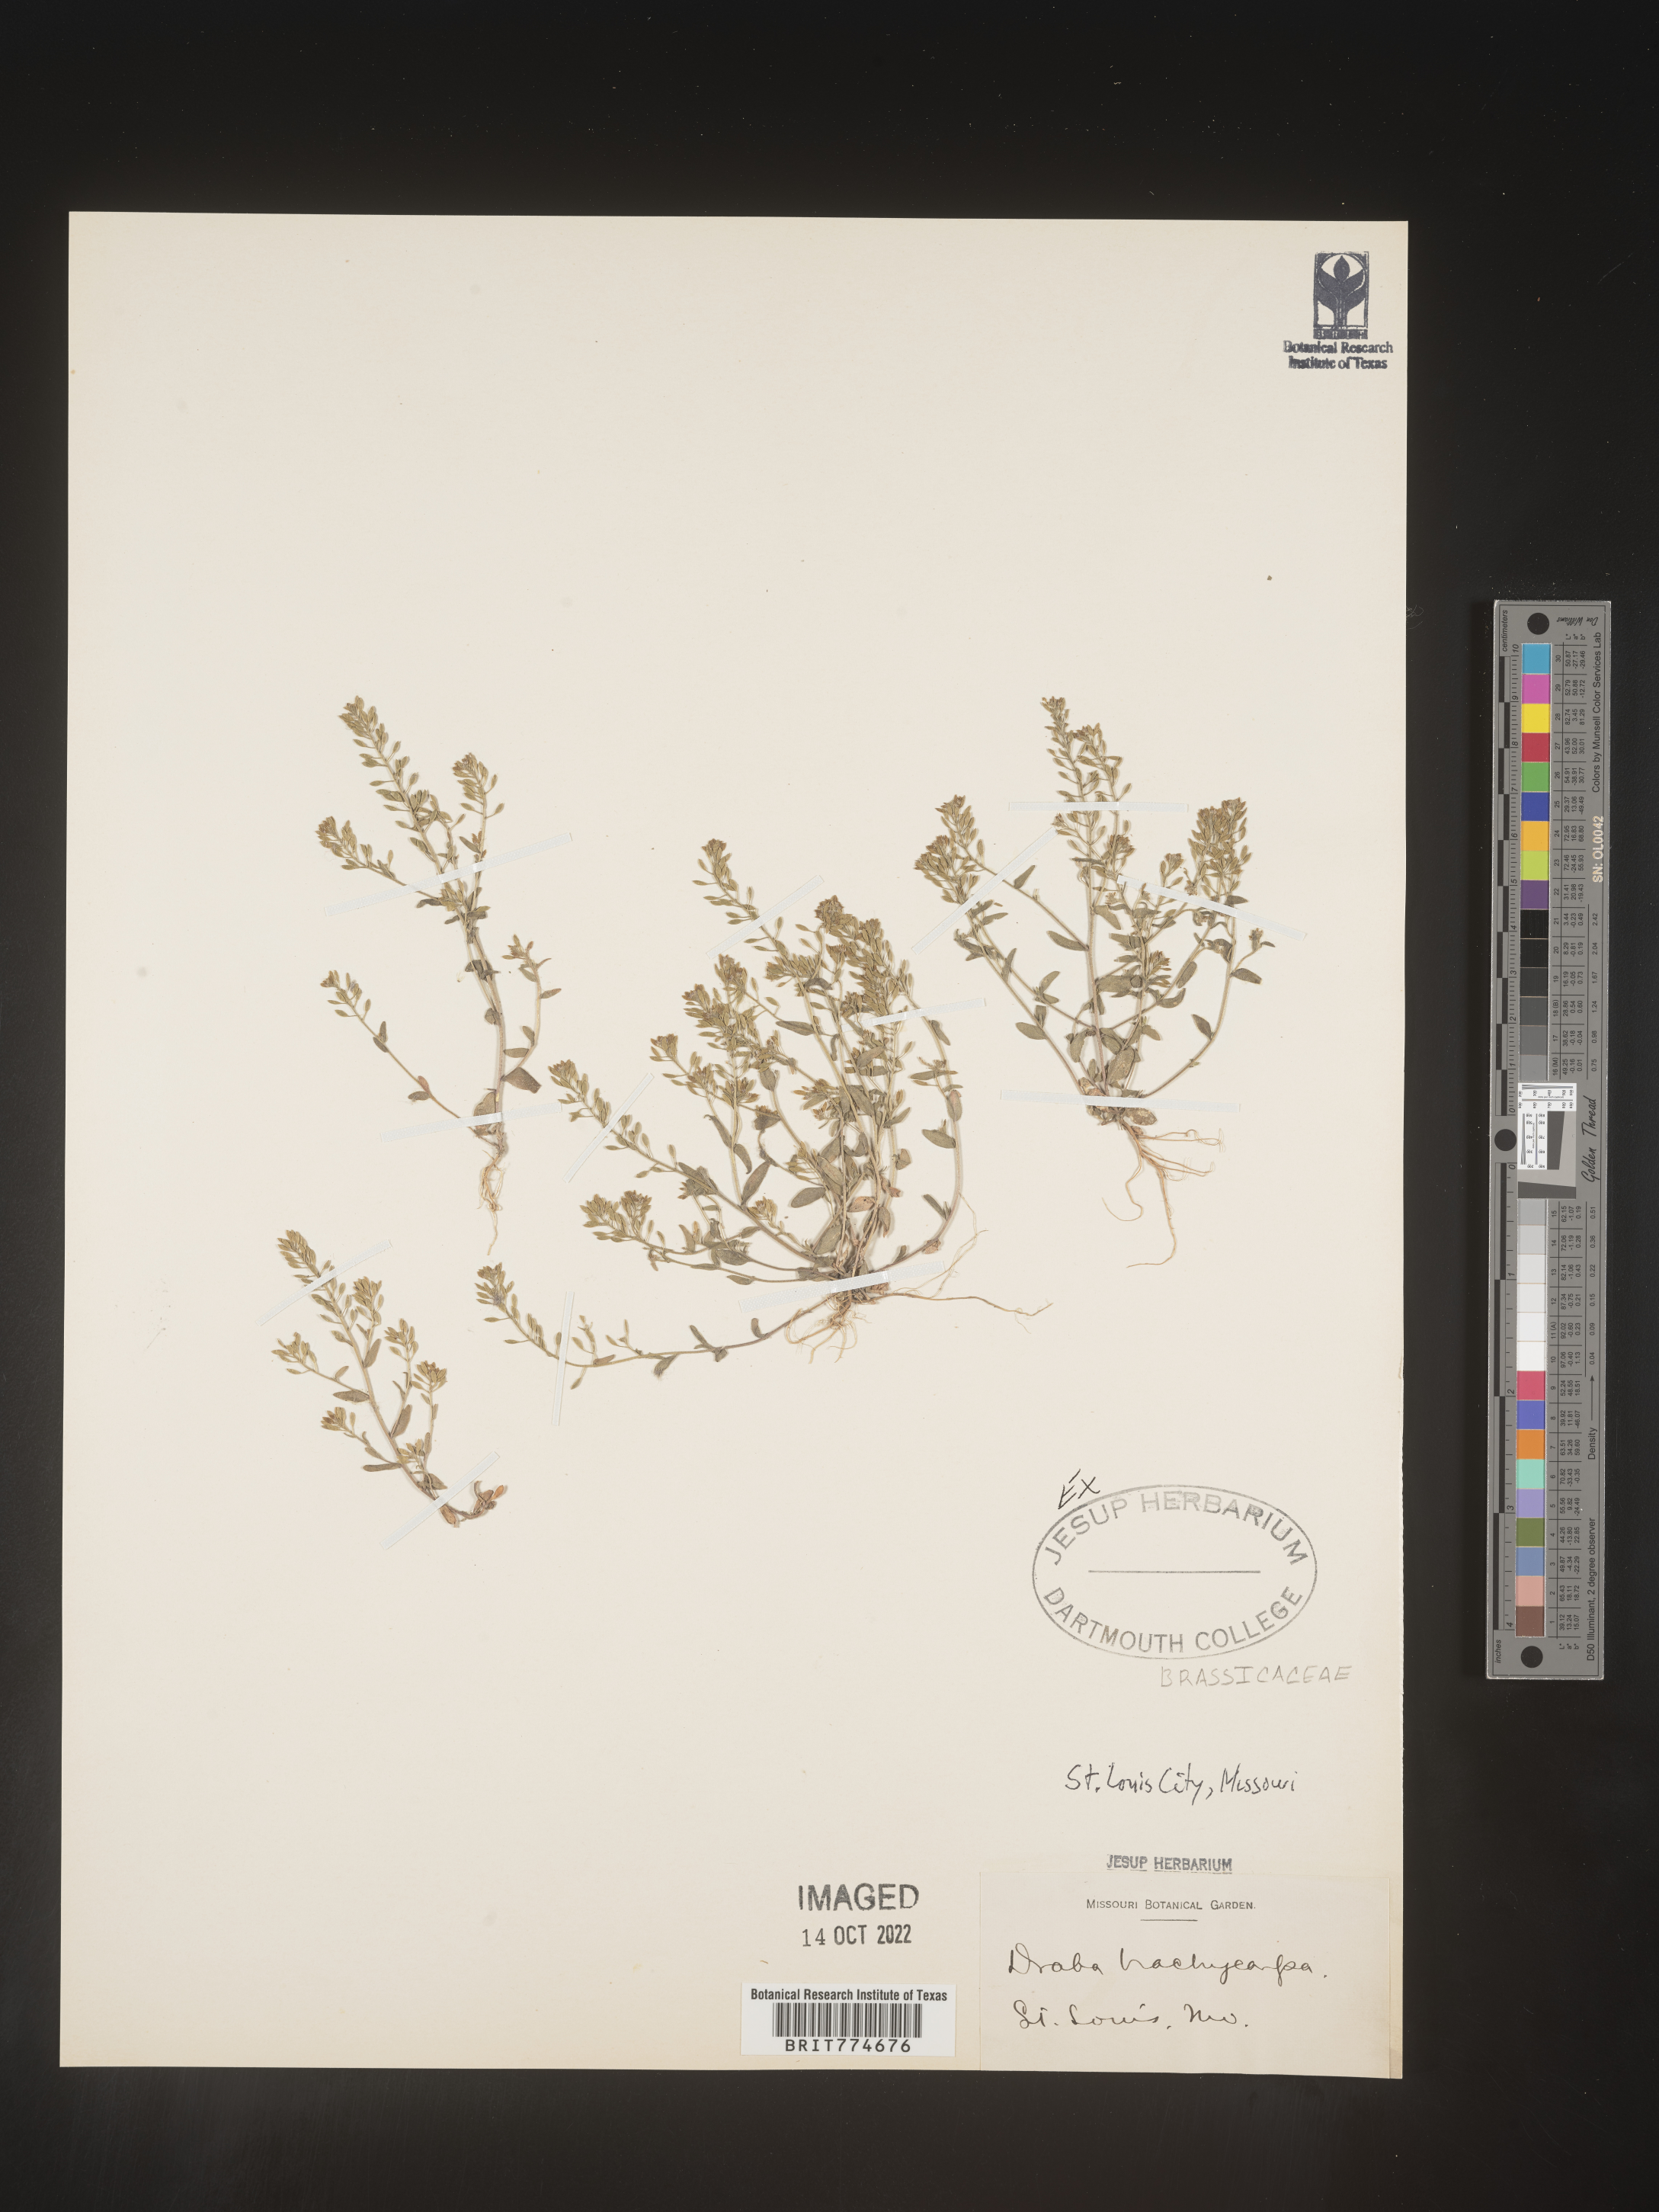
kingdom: Plantae
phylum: Tracheophyta
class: Magnoliopsida
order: Brassicales
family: Brassicaceae
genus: Abdra
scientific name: Abdra brachycarpa
